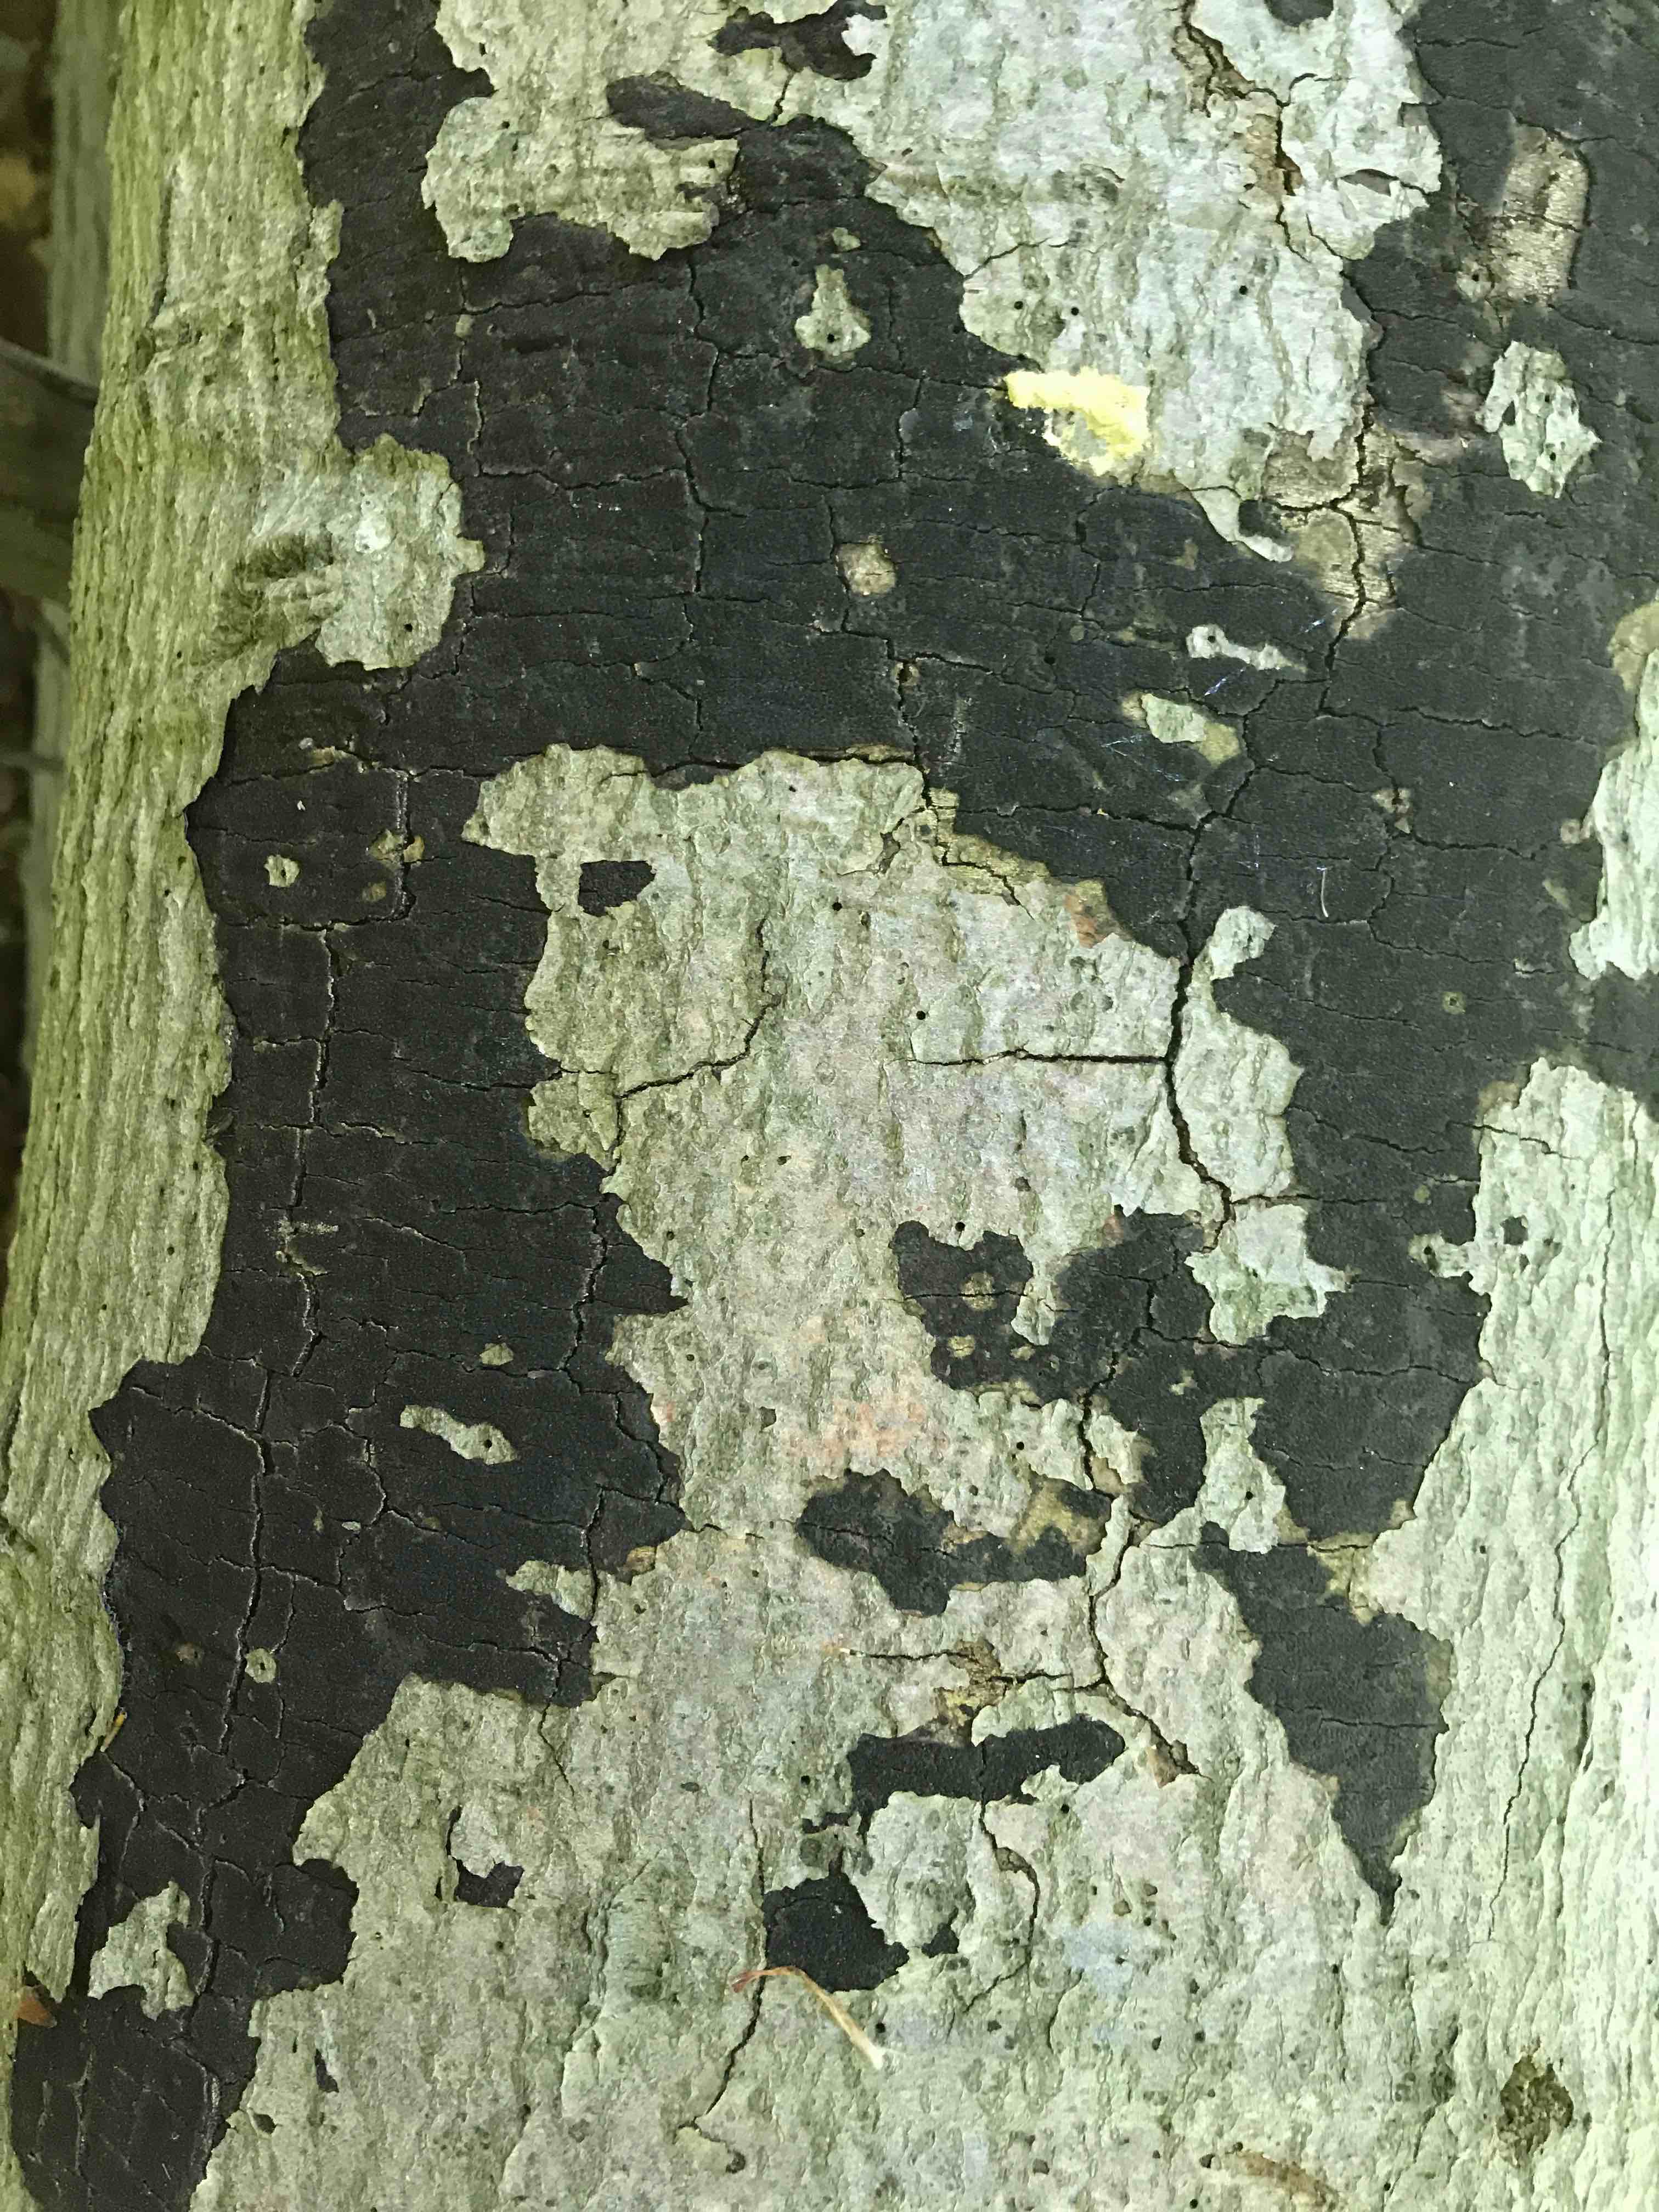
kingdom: Fungi
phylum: Ascomycota
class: Sordariomycetes
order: Xylariales
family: Diatrypaceae
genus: Eutypa
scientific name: Eutypa spinosa
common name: grov kulskorpe
